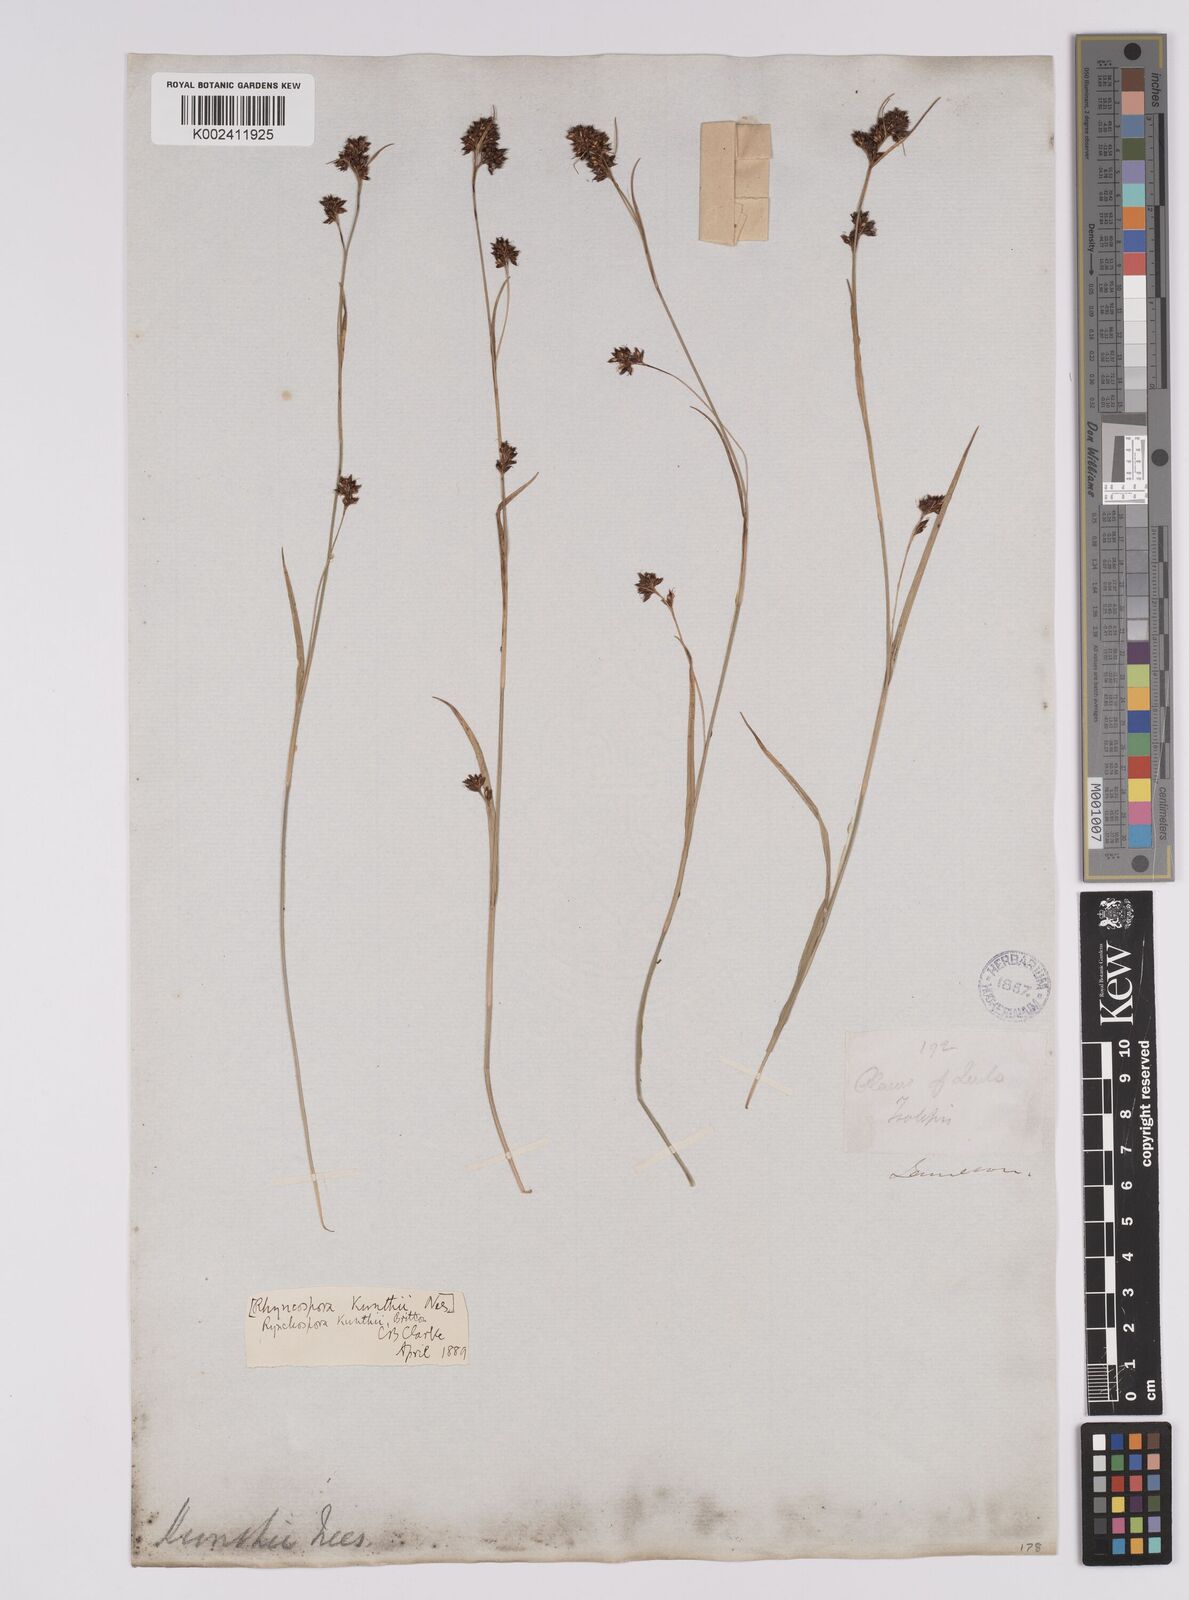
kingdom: Plantae
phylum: Tracheophyta
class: Liliopsida
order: Poales
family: Cyperaceae
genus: Rhynchospora
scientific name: Rhynchospora kunthii
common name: Kunth's beaksedge
